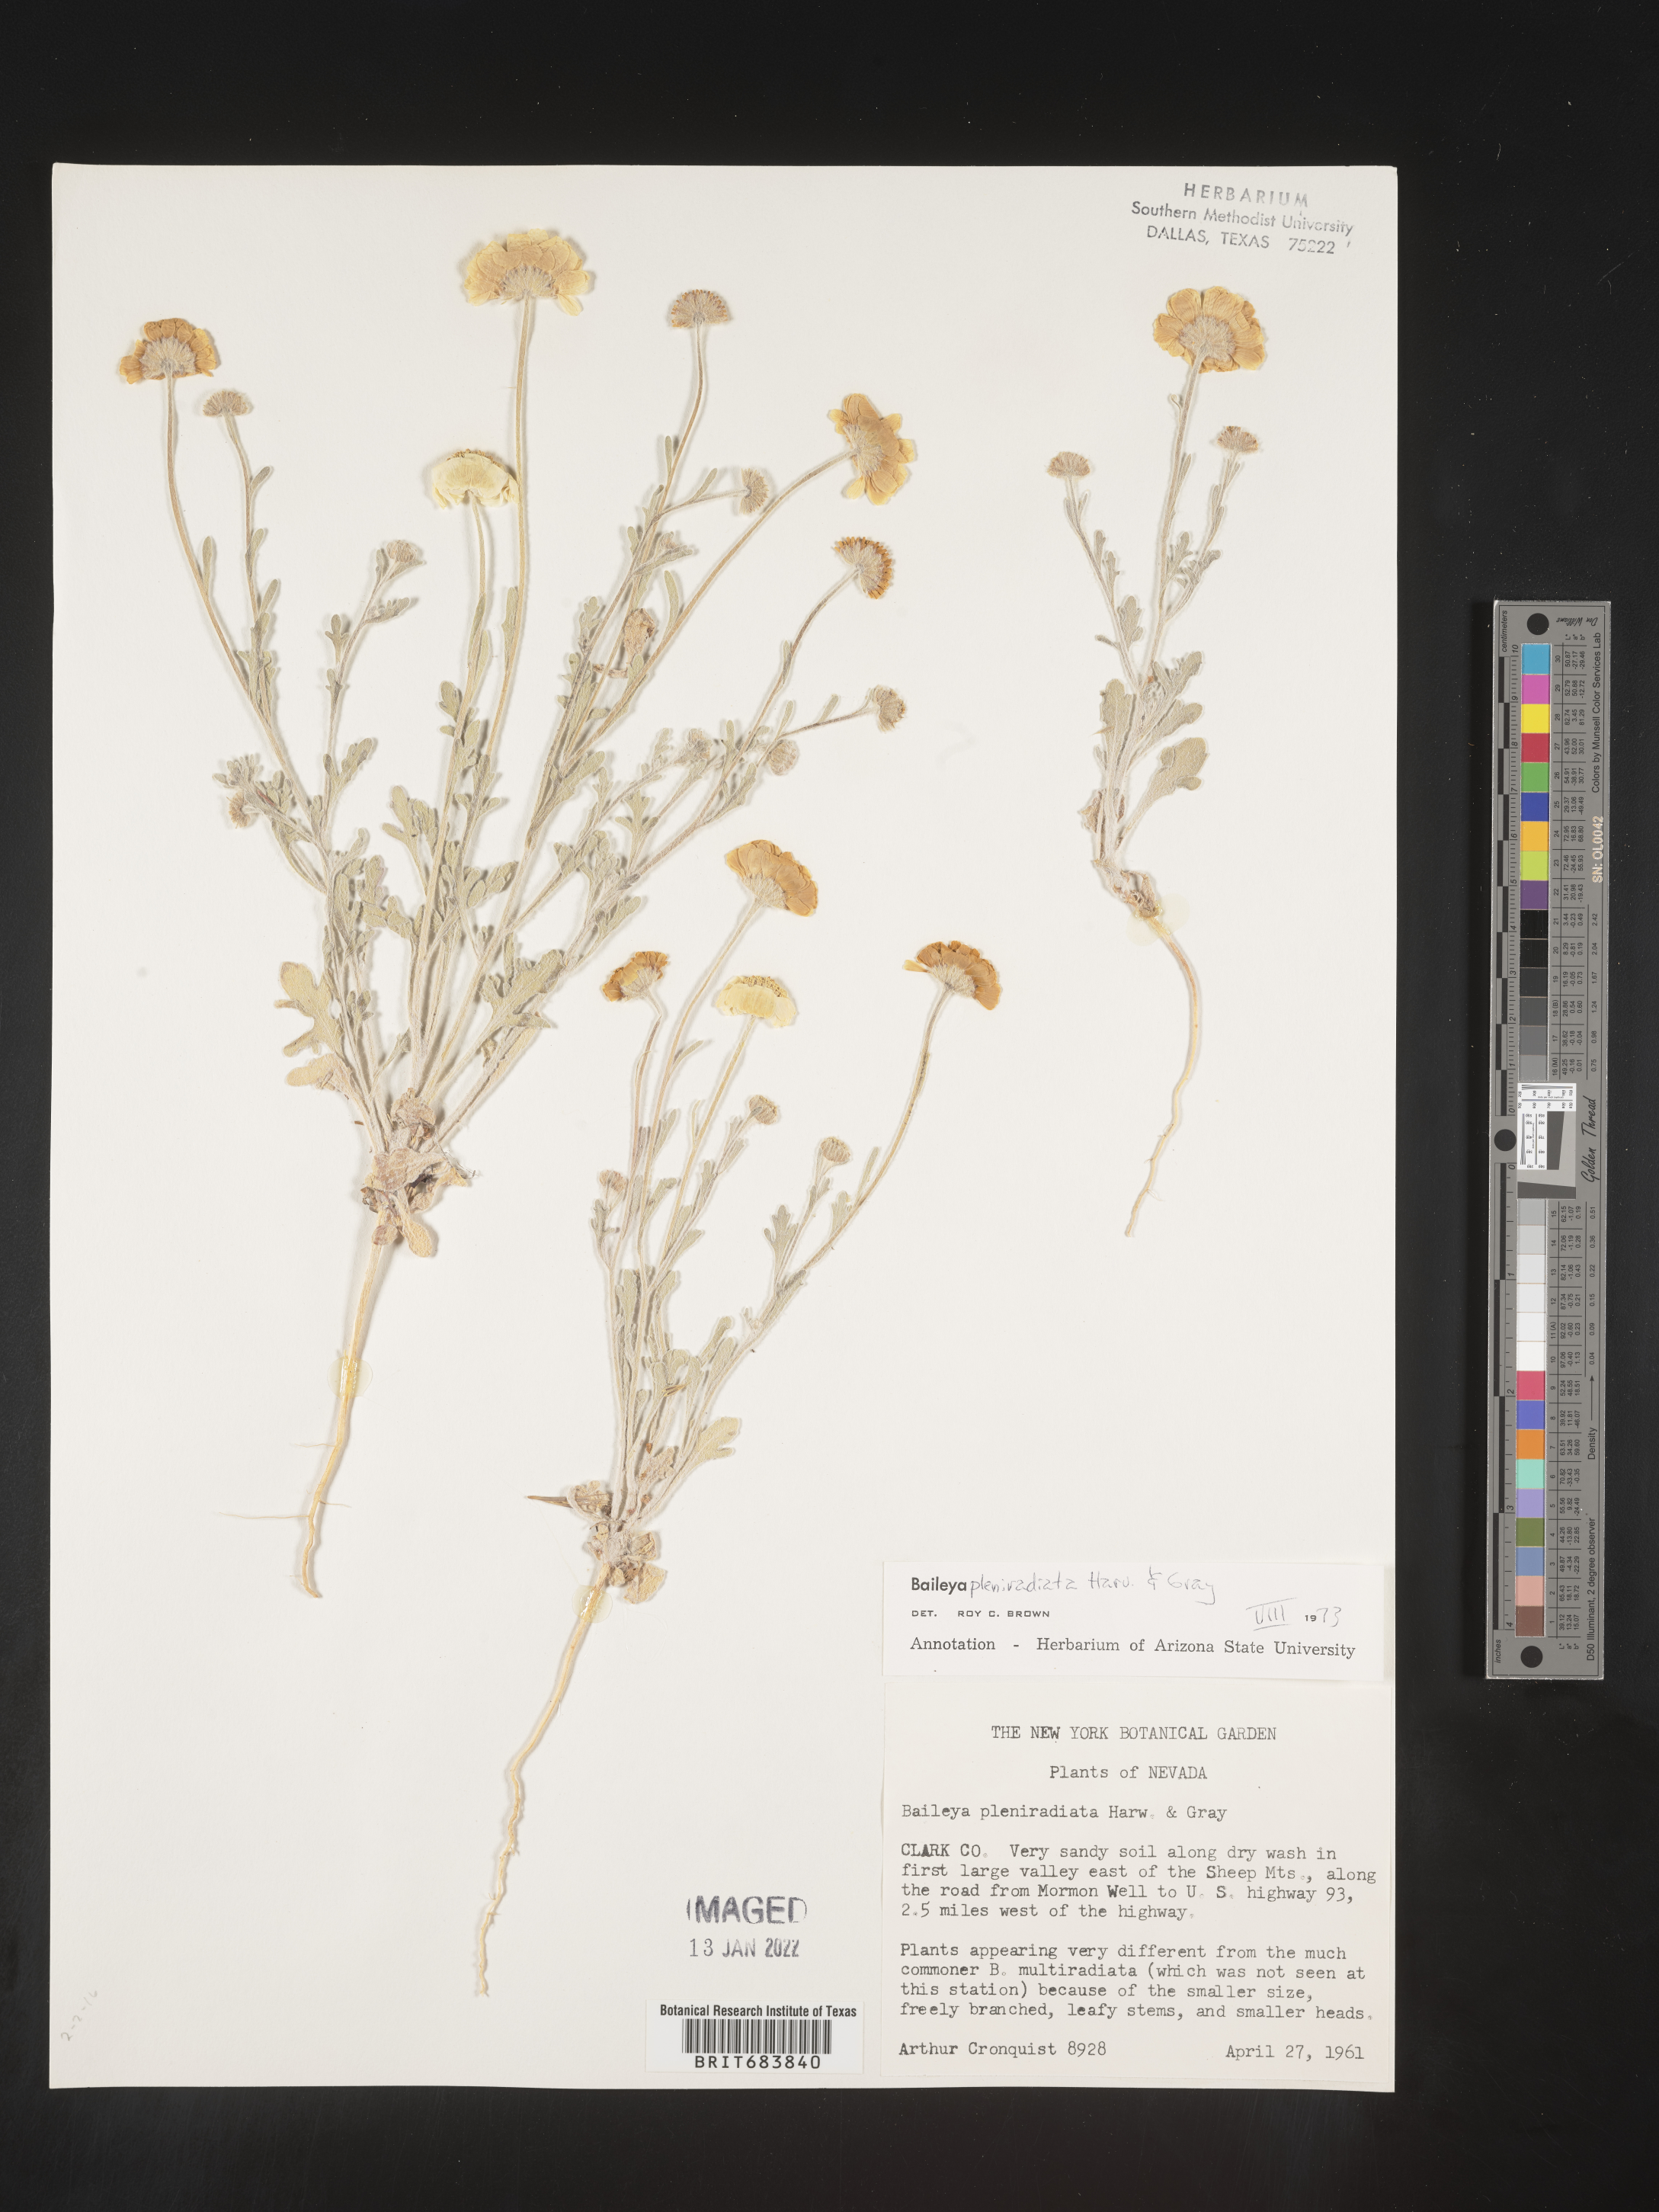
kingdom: Plantae
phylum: Tracheophyta
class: Magnoliopsida
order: Asterales
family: Asteraceae
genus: Baileya
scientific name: Baileya pleniradiata
